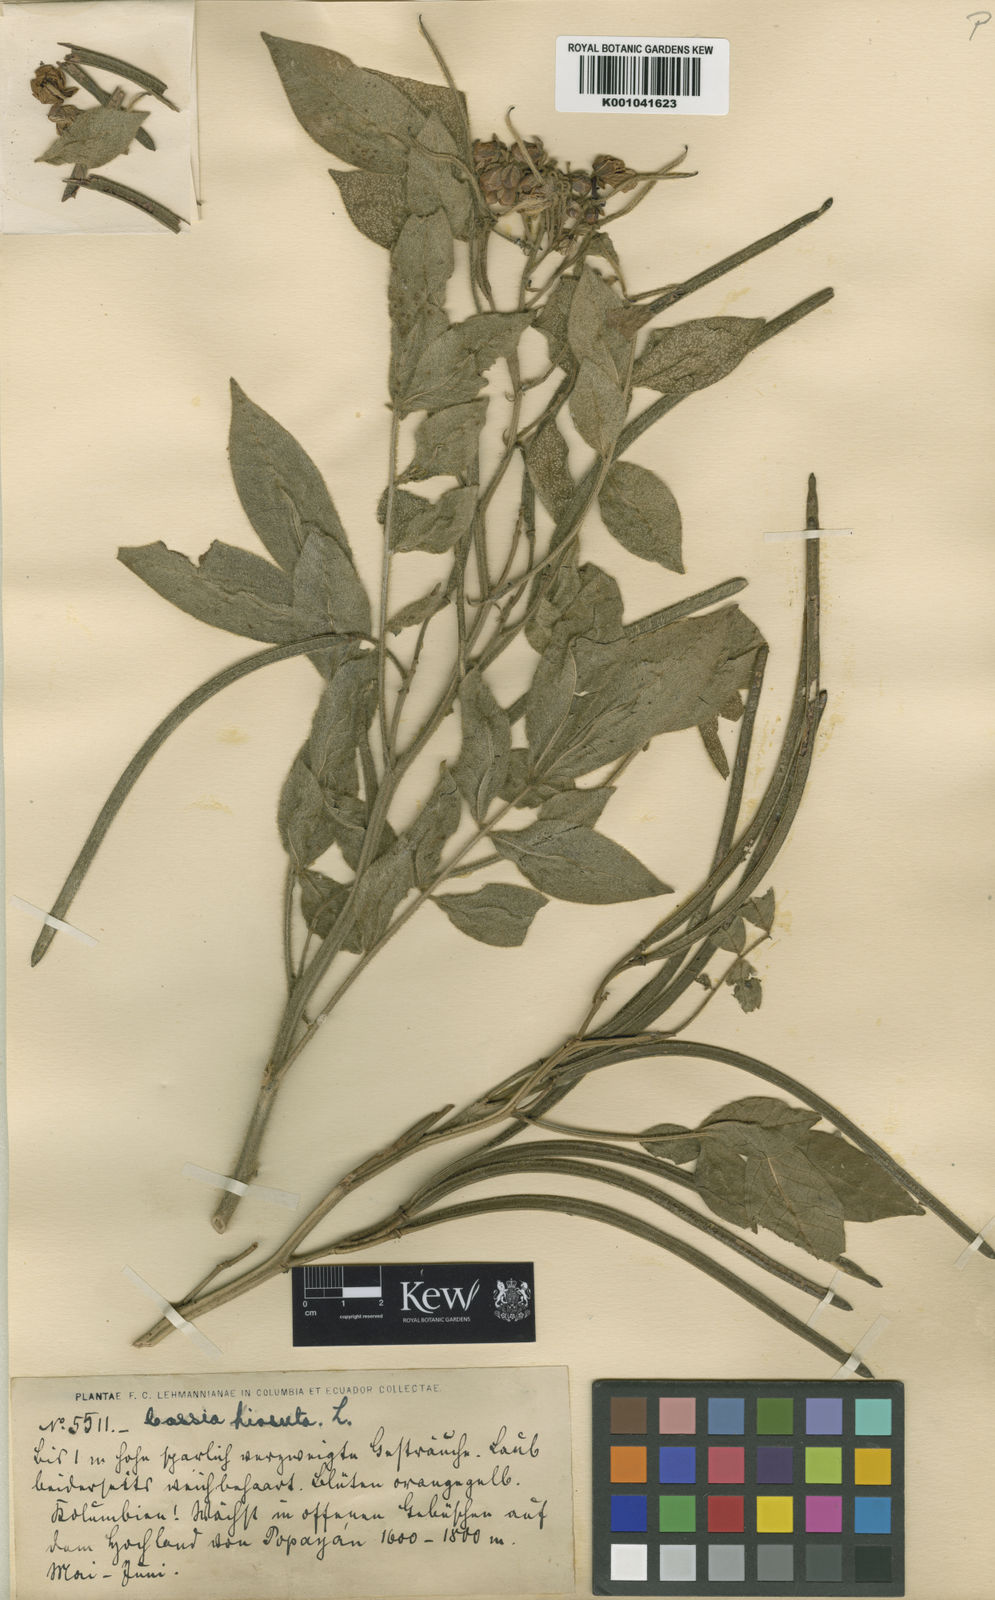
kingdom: Plantae
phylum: Tracheophyta
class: Magnoliopsida
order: Fabales
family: Fabaceae
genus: Senna
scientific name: Senna hirsuta
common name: Woolly senna
